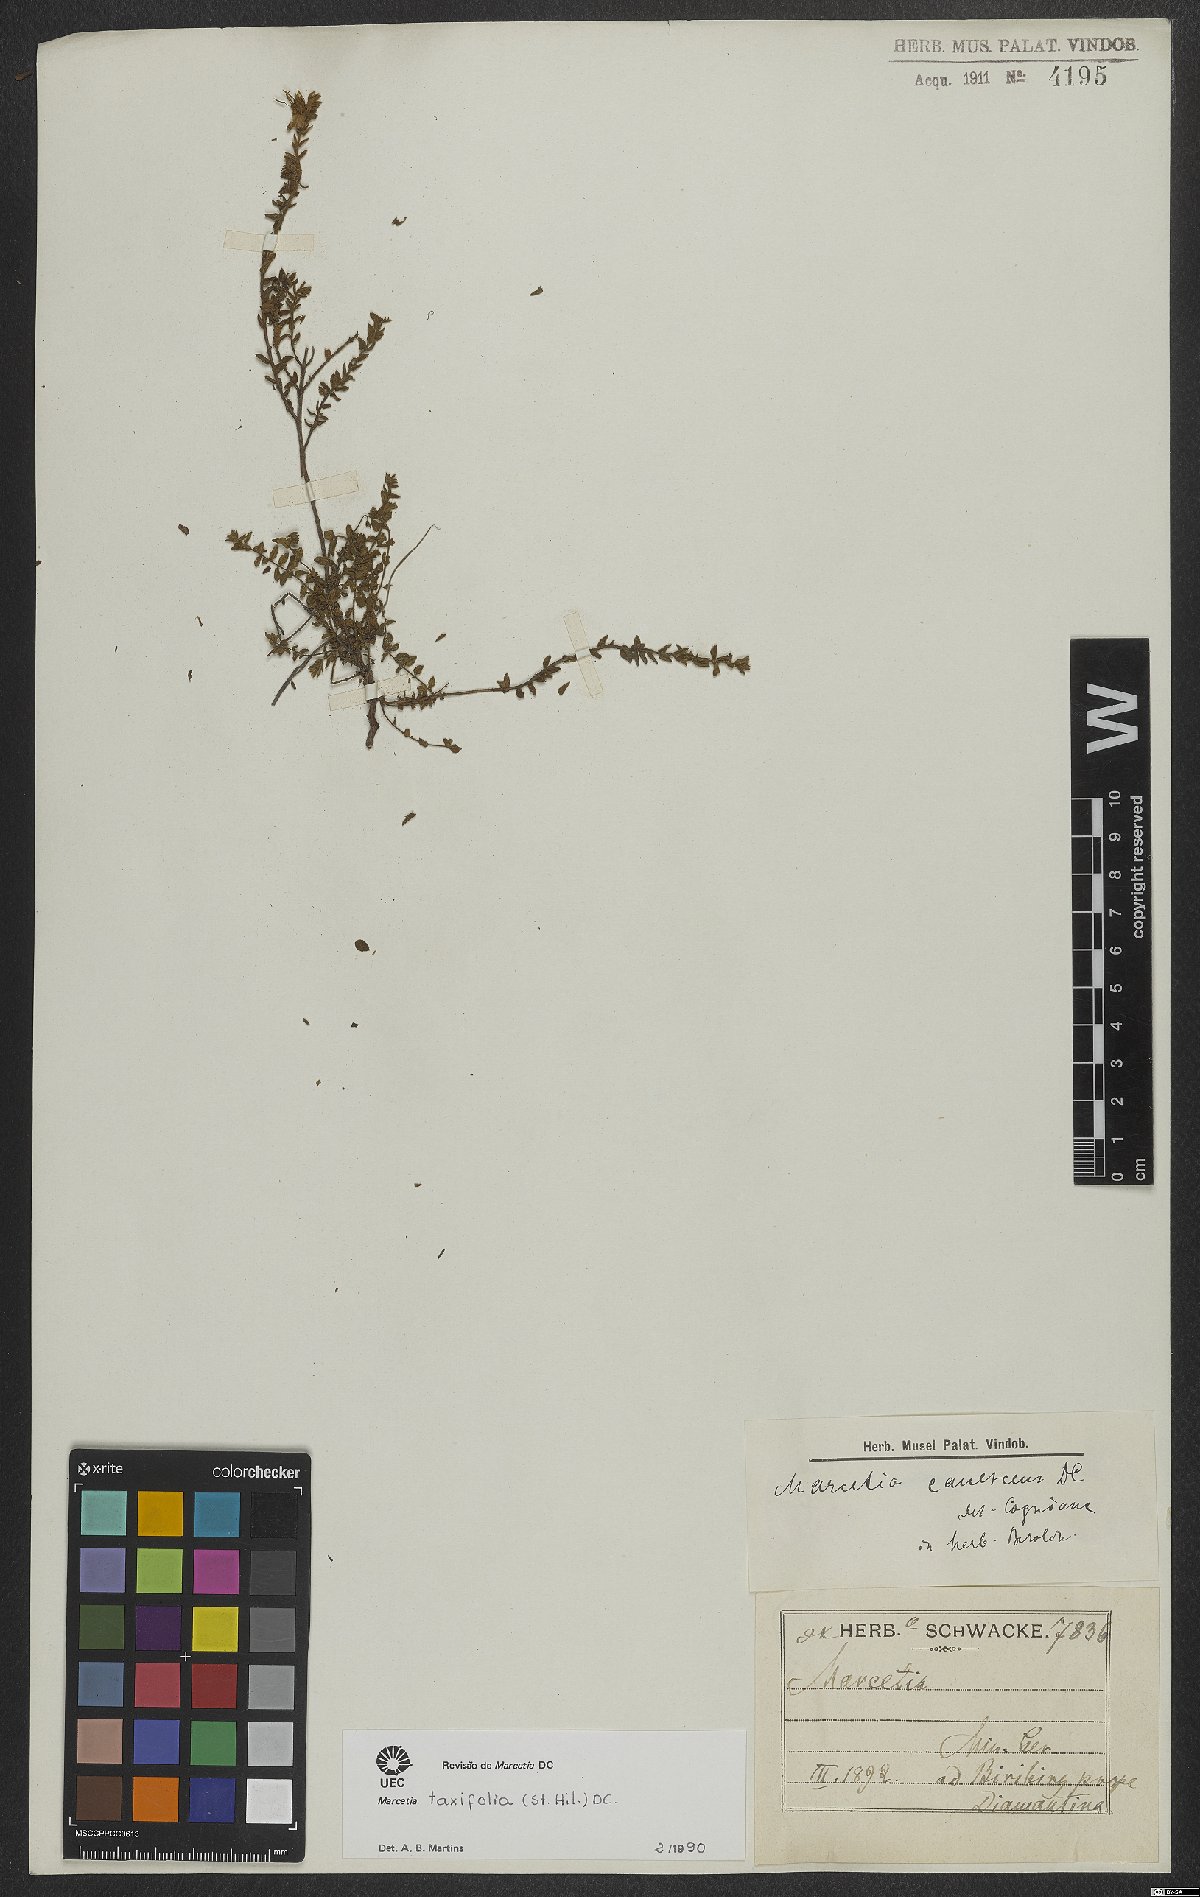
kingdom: Plantae
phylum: Tracheophyta
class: Magnoliopsida
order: Myrtales
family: Melastomataceae
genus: Marcetia
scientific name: Marcetia taxifolia
